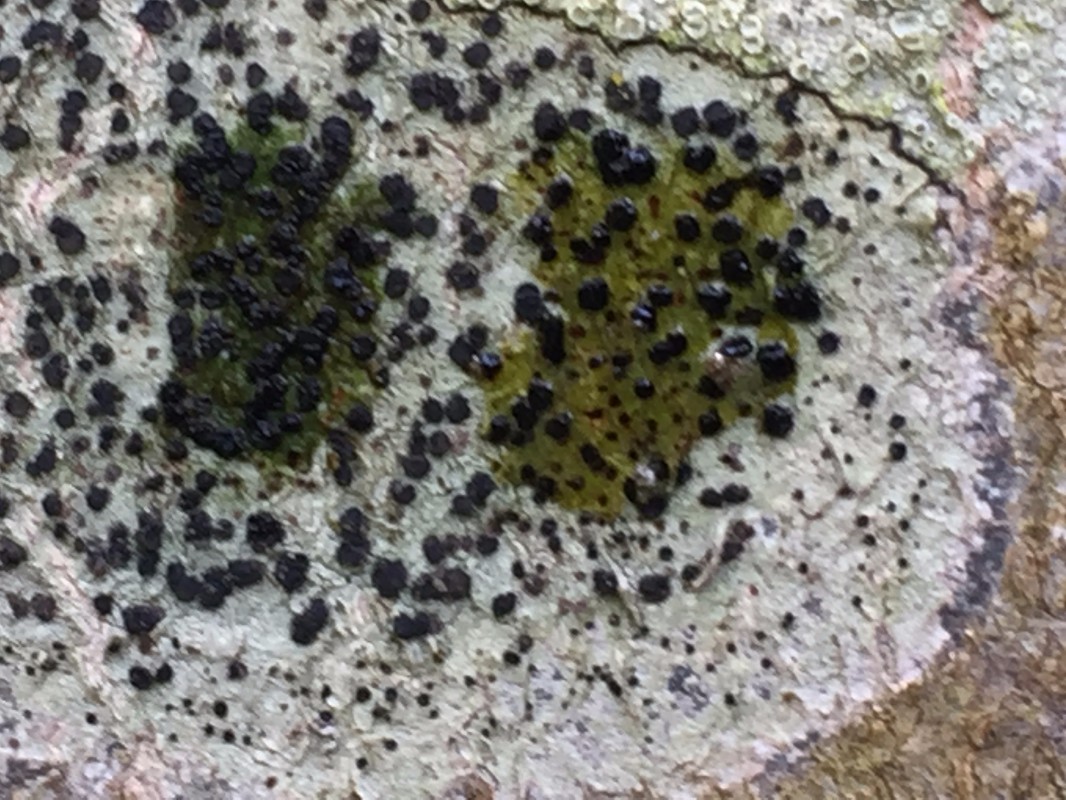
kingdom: Fungi
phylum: Ascomycota
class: Lecanoromycetes
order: Lecanorales
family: Lecanoraceae
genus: Lecidella
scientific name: Lecidella elaeochroma
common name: grågrøn skivelav
